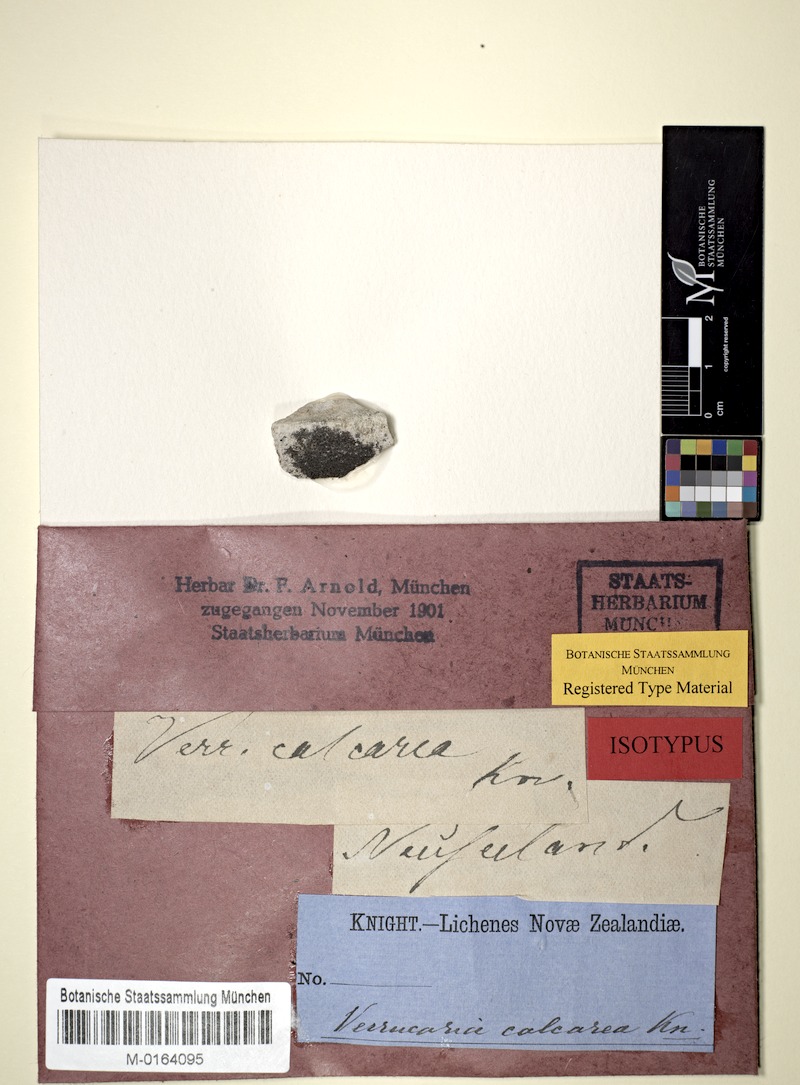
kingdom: Fungi
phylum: Ascomycota
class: Dothideomycetes
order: Pleosporales
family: Arthopyreniaceae
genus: Arthopyrenia
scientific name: Arthopyrenia calcarea
